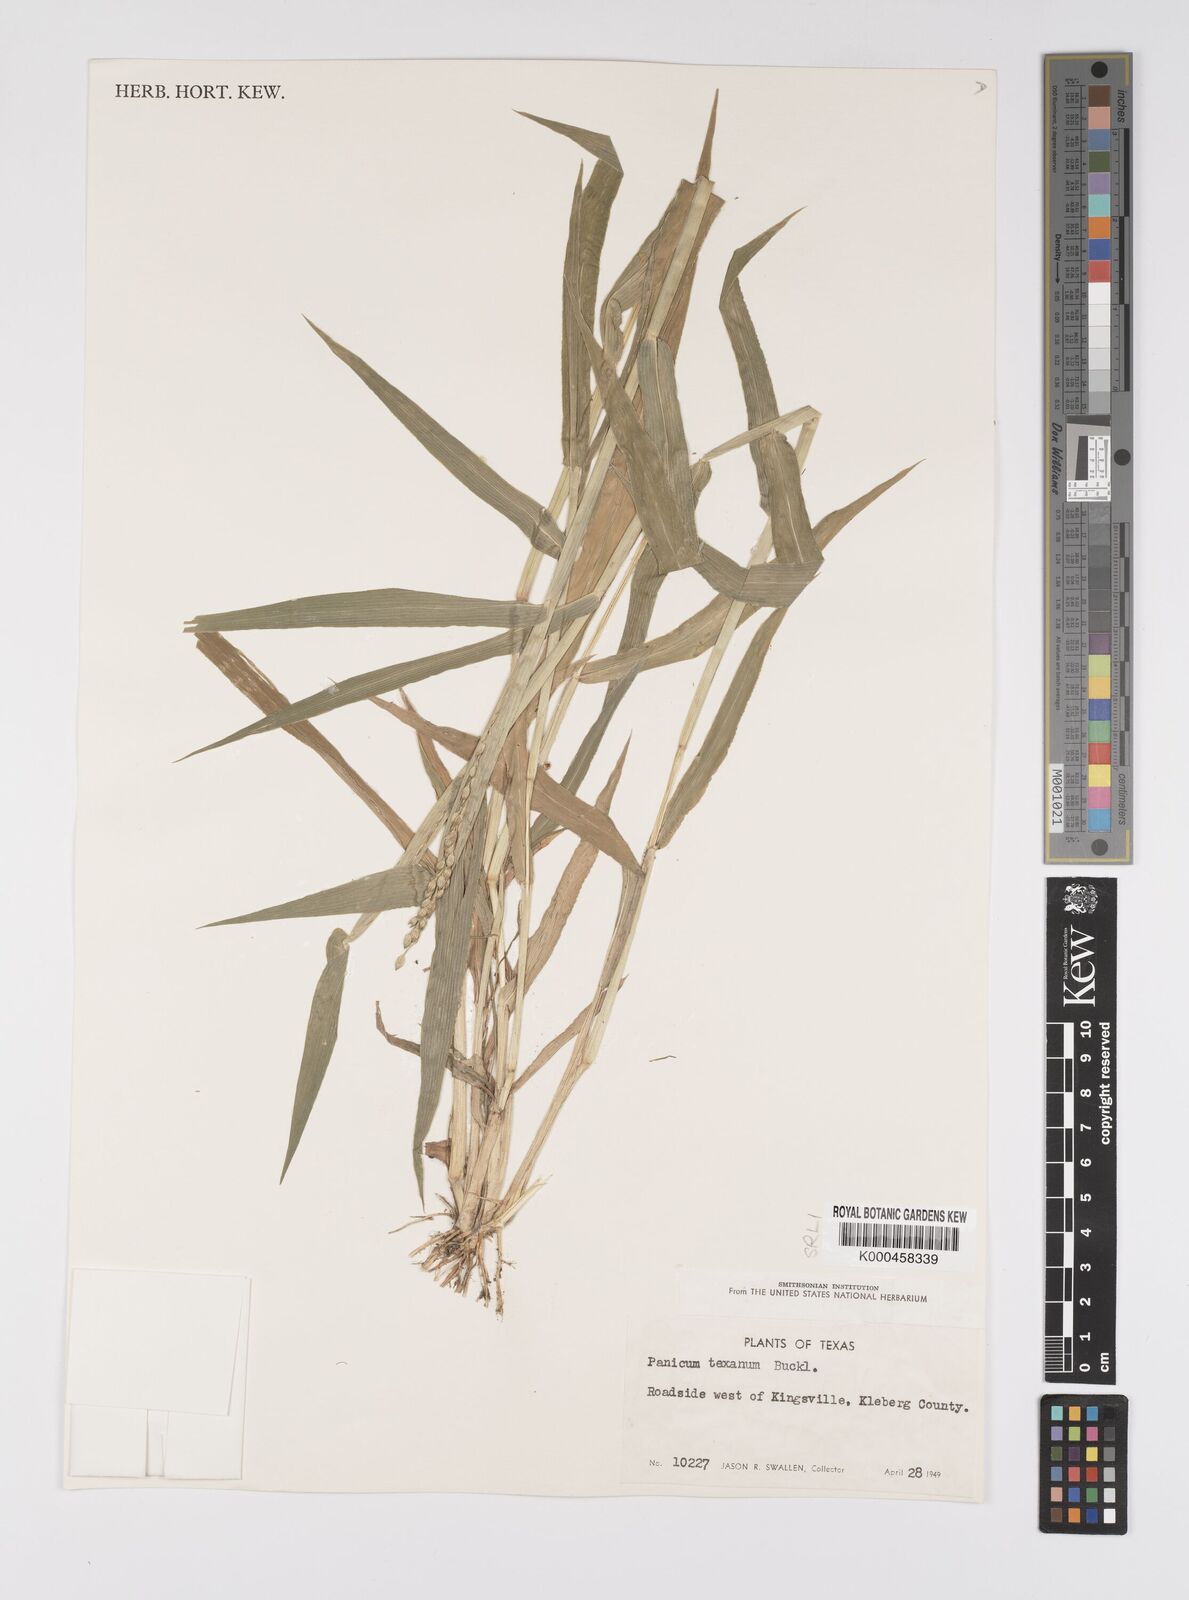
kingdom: Plantae
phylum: Tracheophyta
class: Liliopsida
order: Poales
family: Poaceae
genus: Urochloa
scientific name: Urochloa texana
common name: Texas millet
